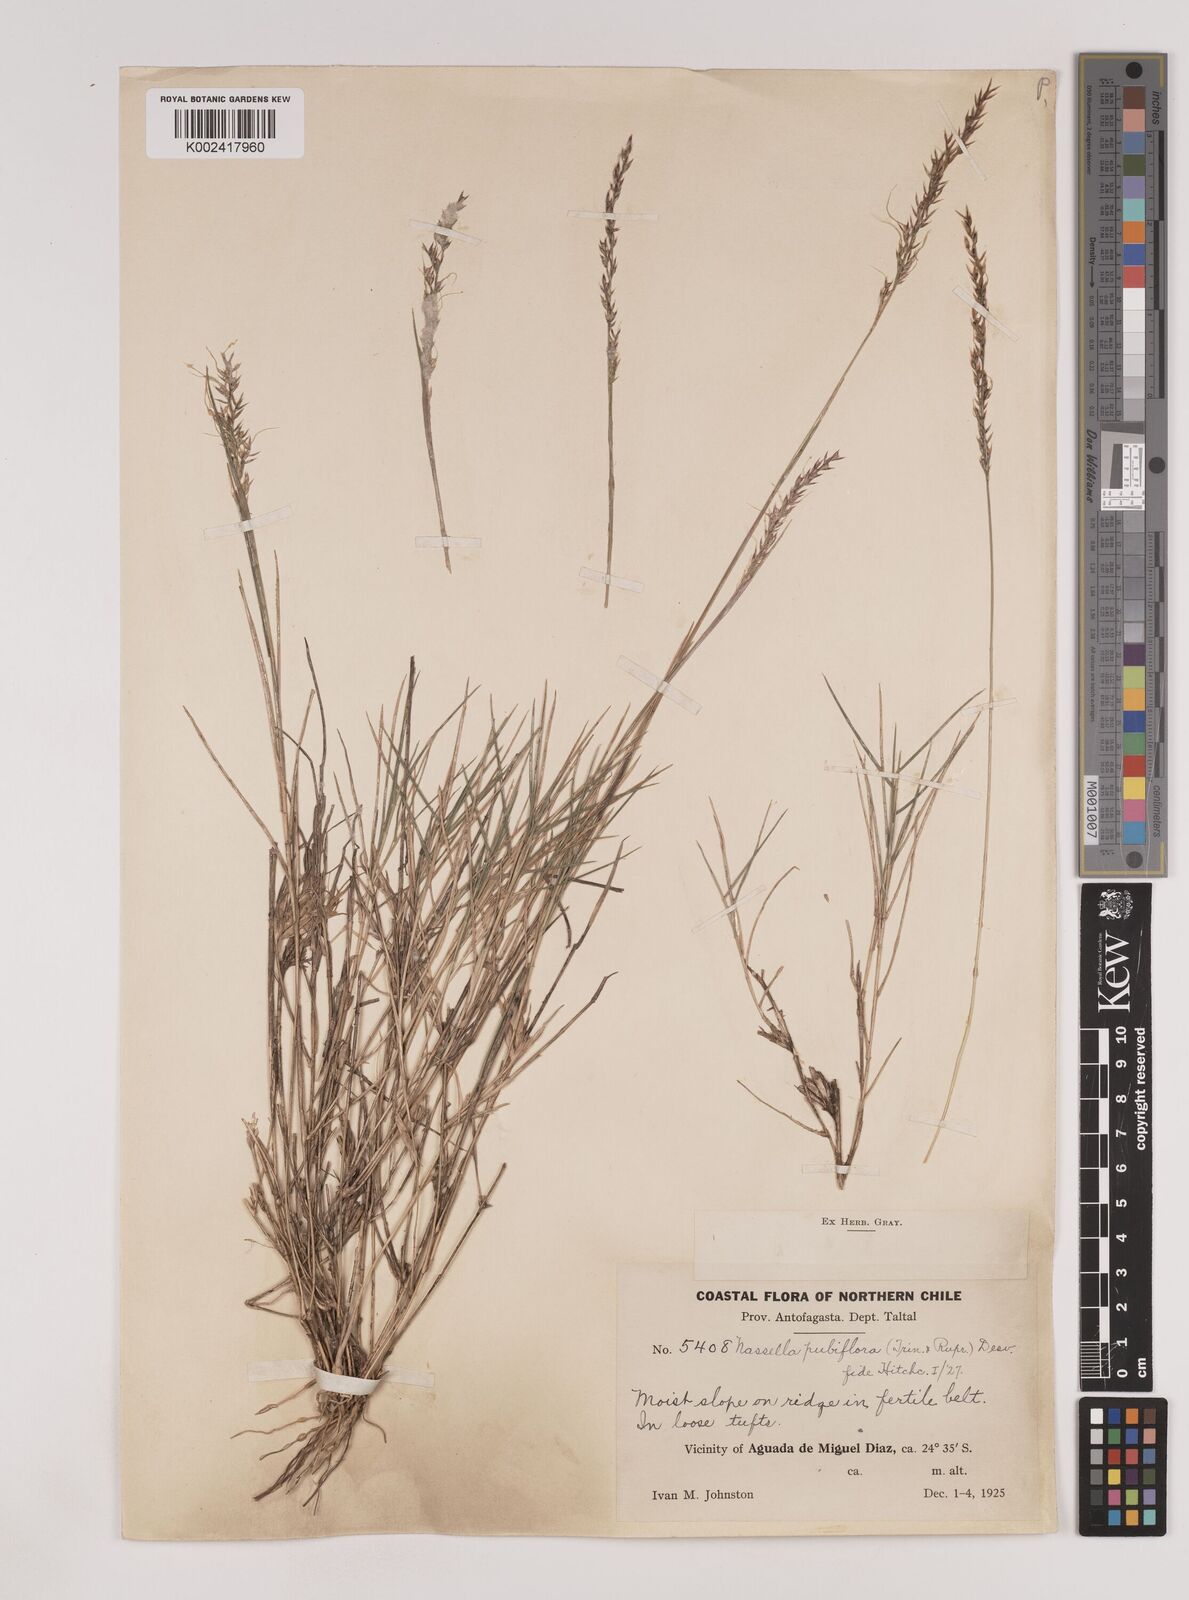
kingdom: Plantae
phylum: Tracheophyta
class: Liliopsida
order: Poales
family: Poaceae
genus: Nassella
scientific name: Nassella pubiflora
